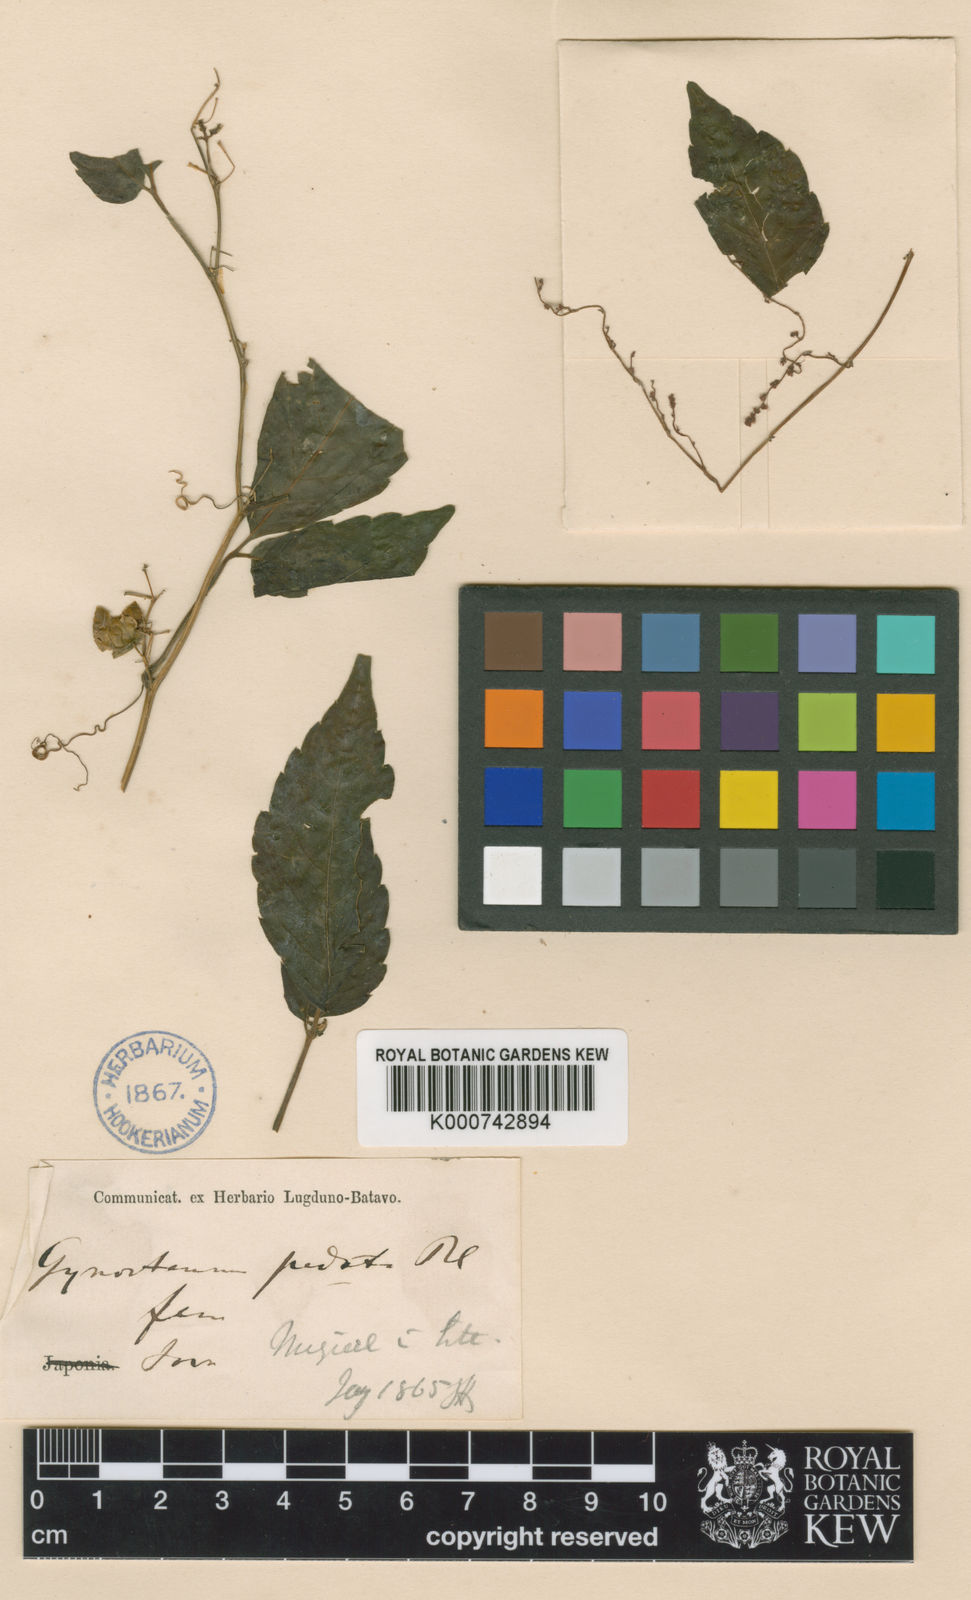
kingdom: Plantae
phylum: Tracheophyta
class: Magnoliopsida
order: Cucurbitales
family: Cucurbitaceae
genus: Gynostemma
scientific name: Gynostemma pentaphyllum
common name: Gynostemma
